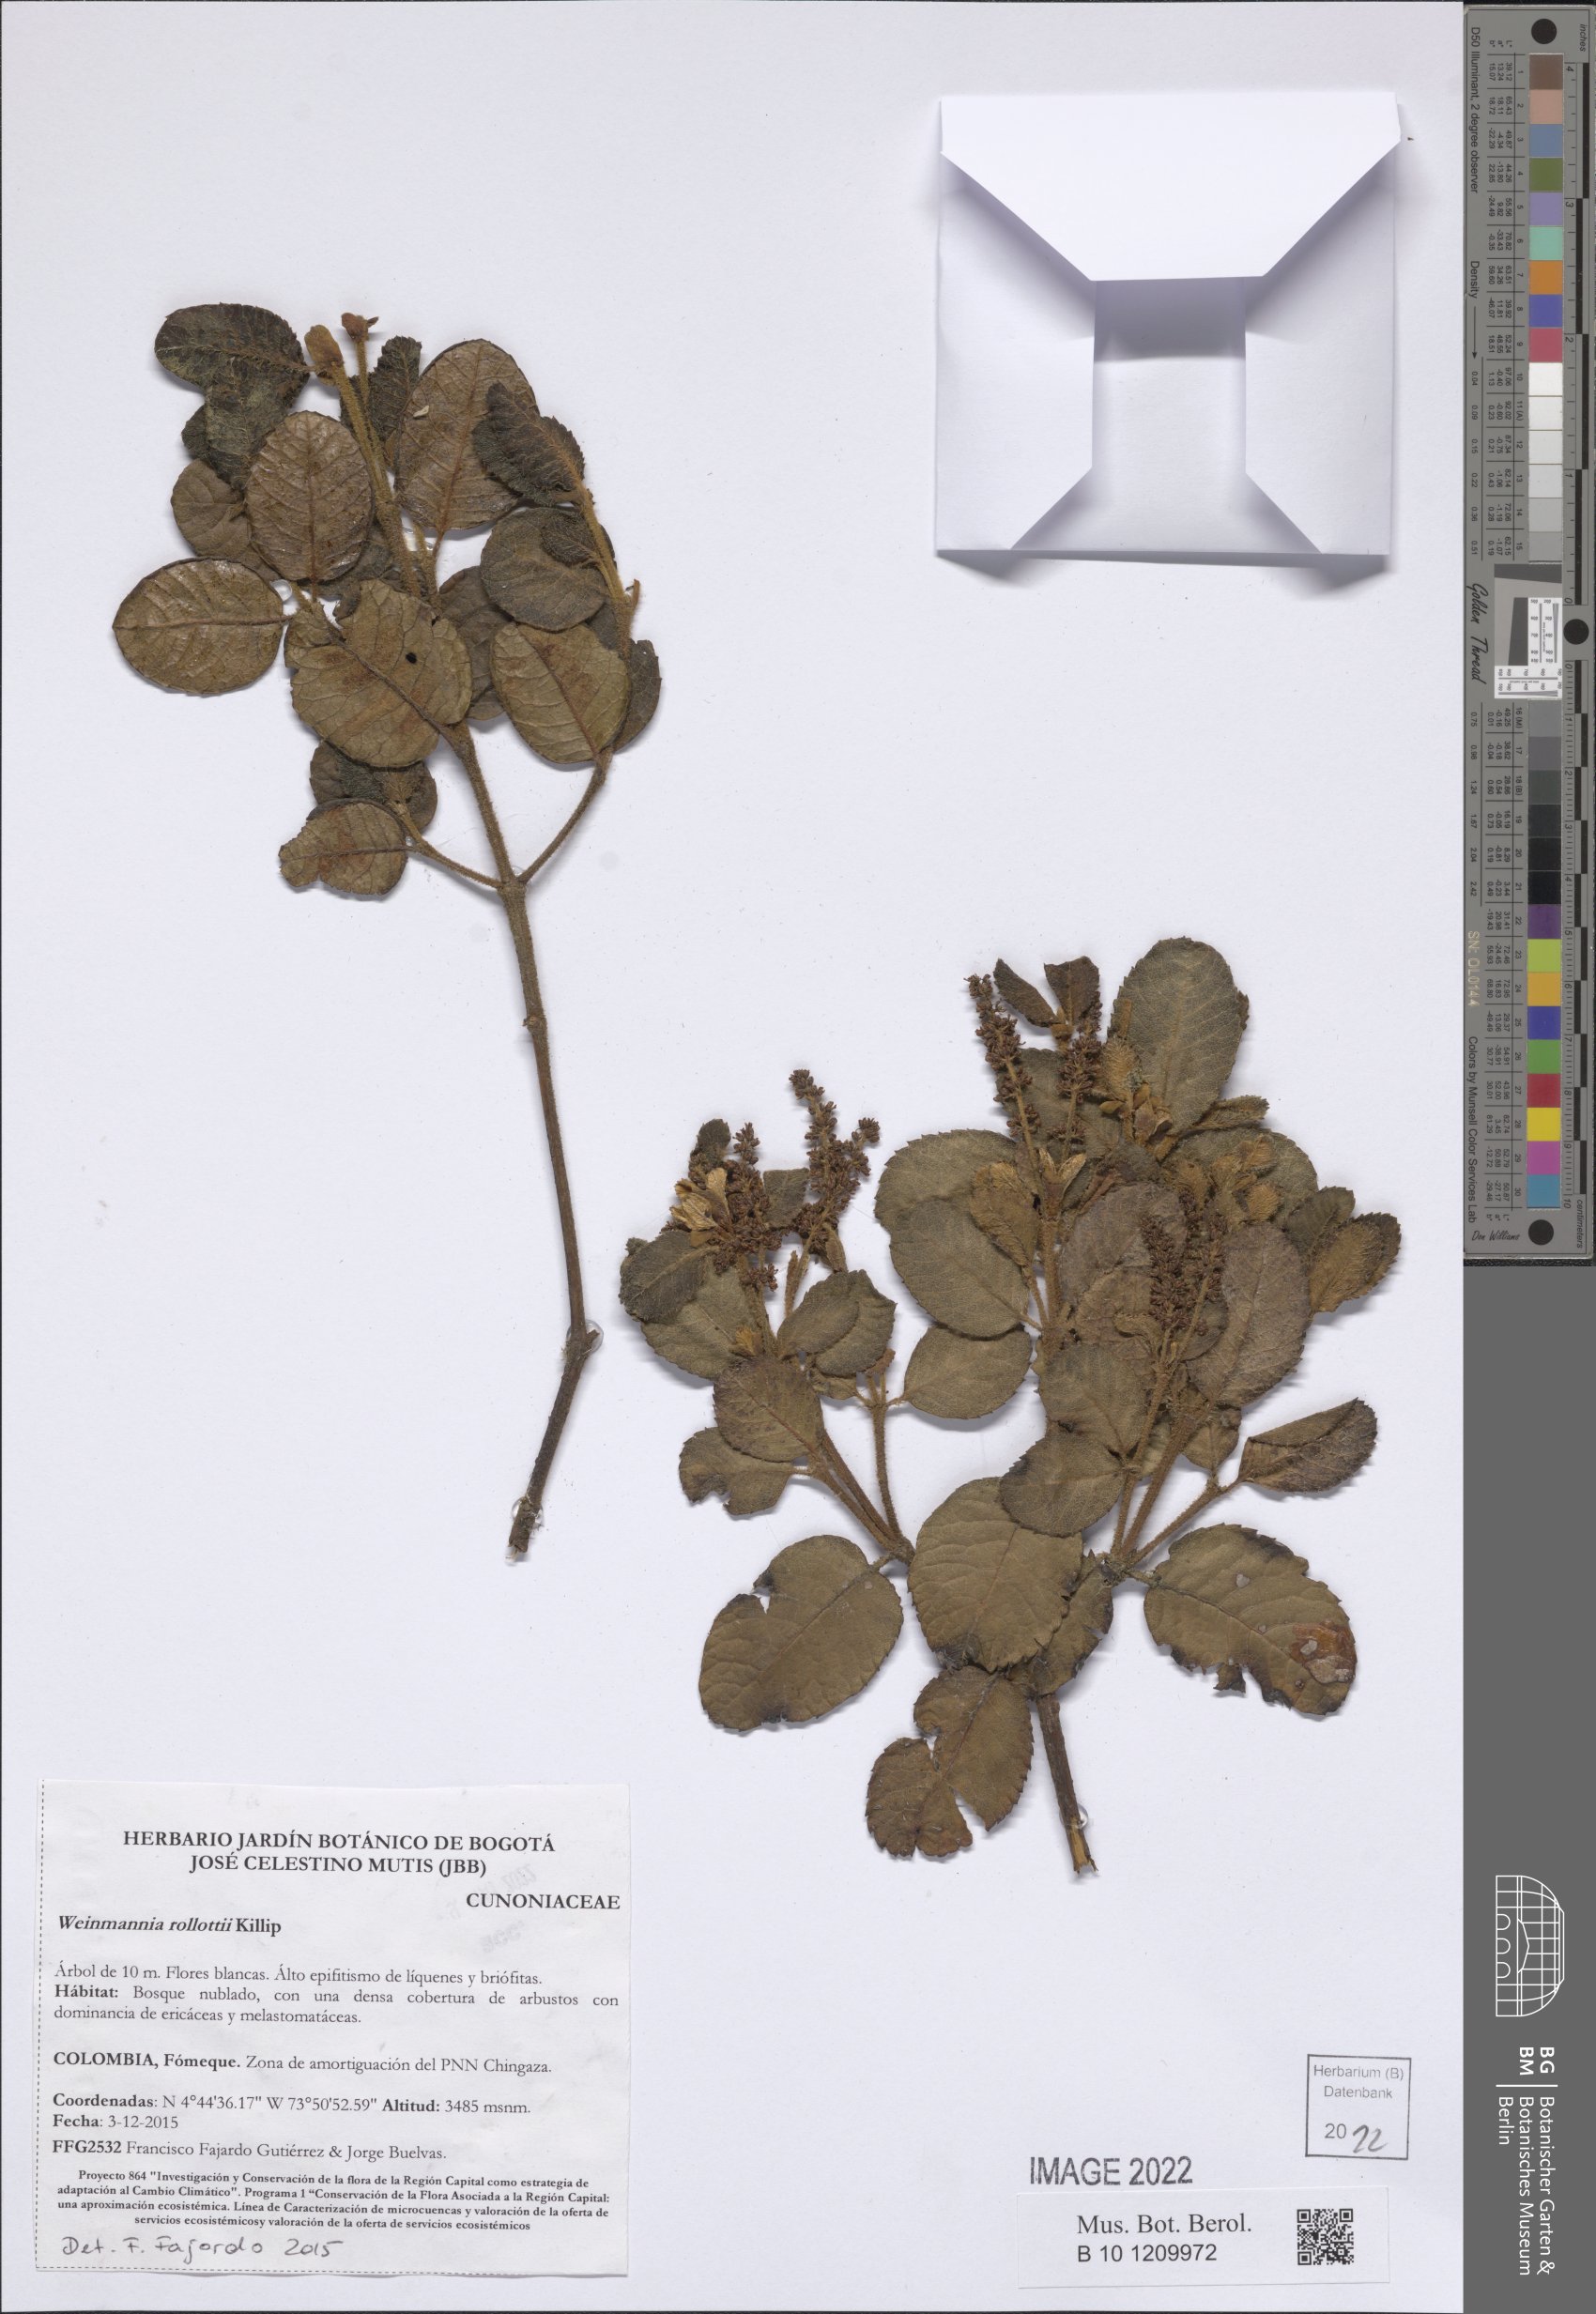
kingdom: Plantae
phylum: Tracheophyta
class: Magnoliopsida
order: Oxalidales
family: Cunoniaceae
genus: Weinmannia
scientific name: Weinmannia rollottii
